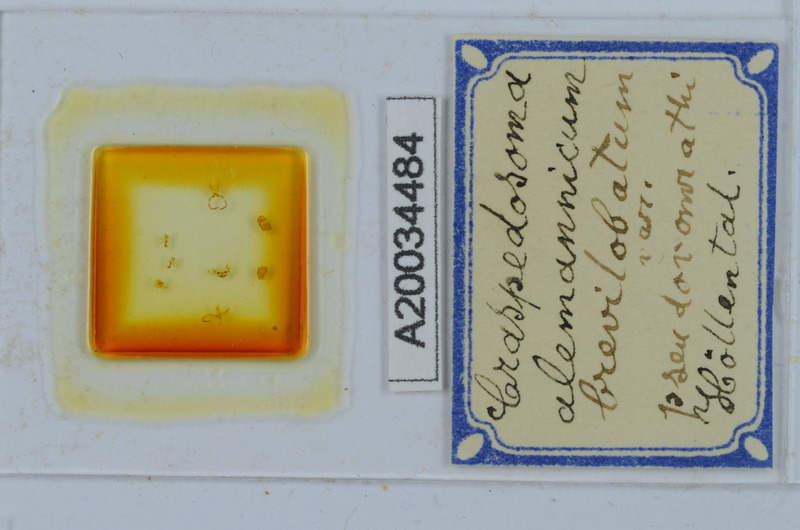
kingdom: Animalia
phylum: Arthropoda
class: Diplopoda
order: Chordeumatida
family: Craspedosomatidae
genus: Craspedosoma
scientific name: Craspedosoma rawlinsii
